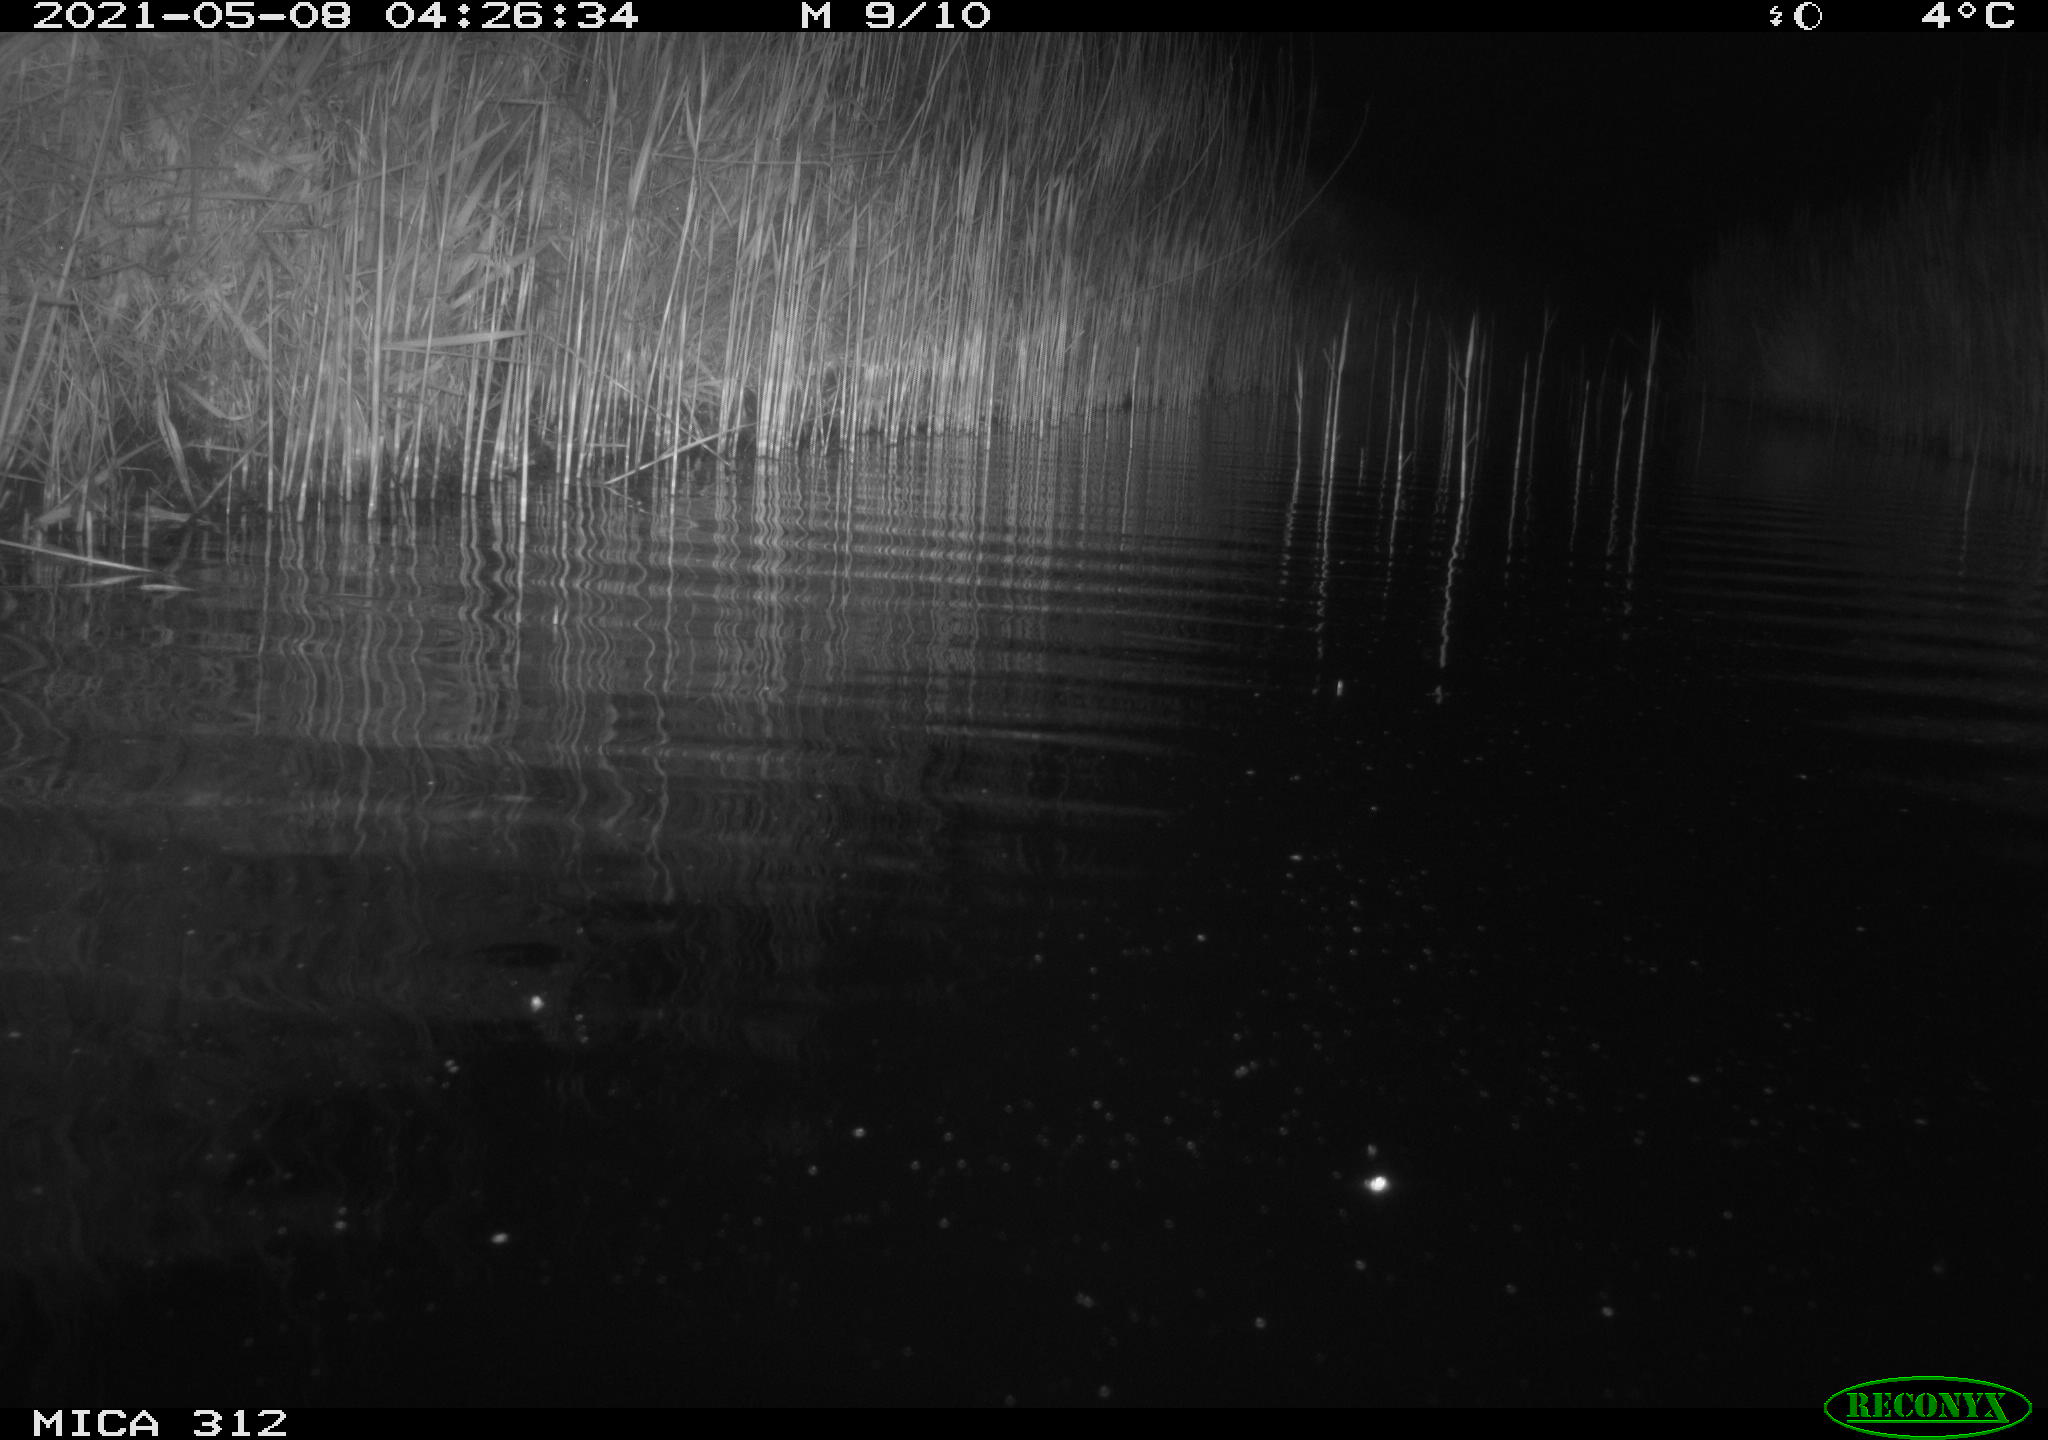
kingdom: Animalia
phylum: Chordata
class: Mammalia
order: Rodentia
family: Cricetidae
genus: Ondatra
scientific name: Ondatra zibethicus
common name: Muskrat
